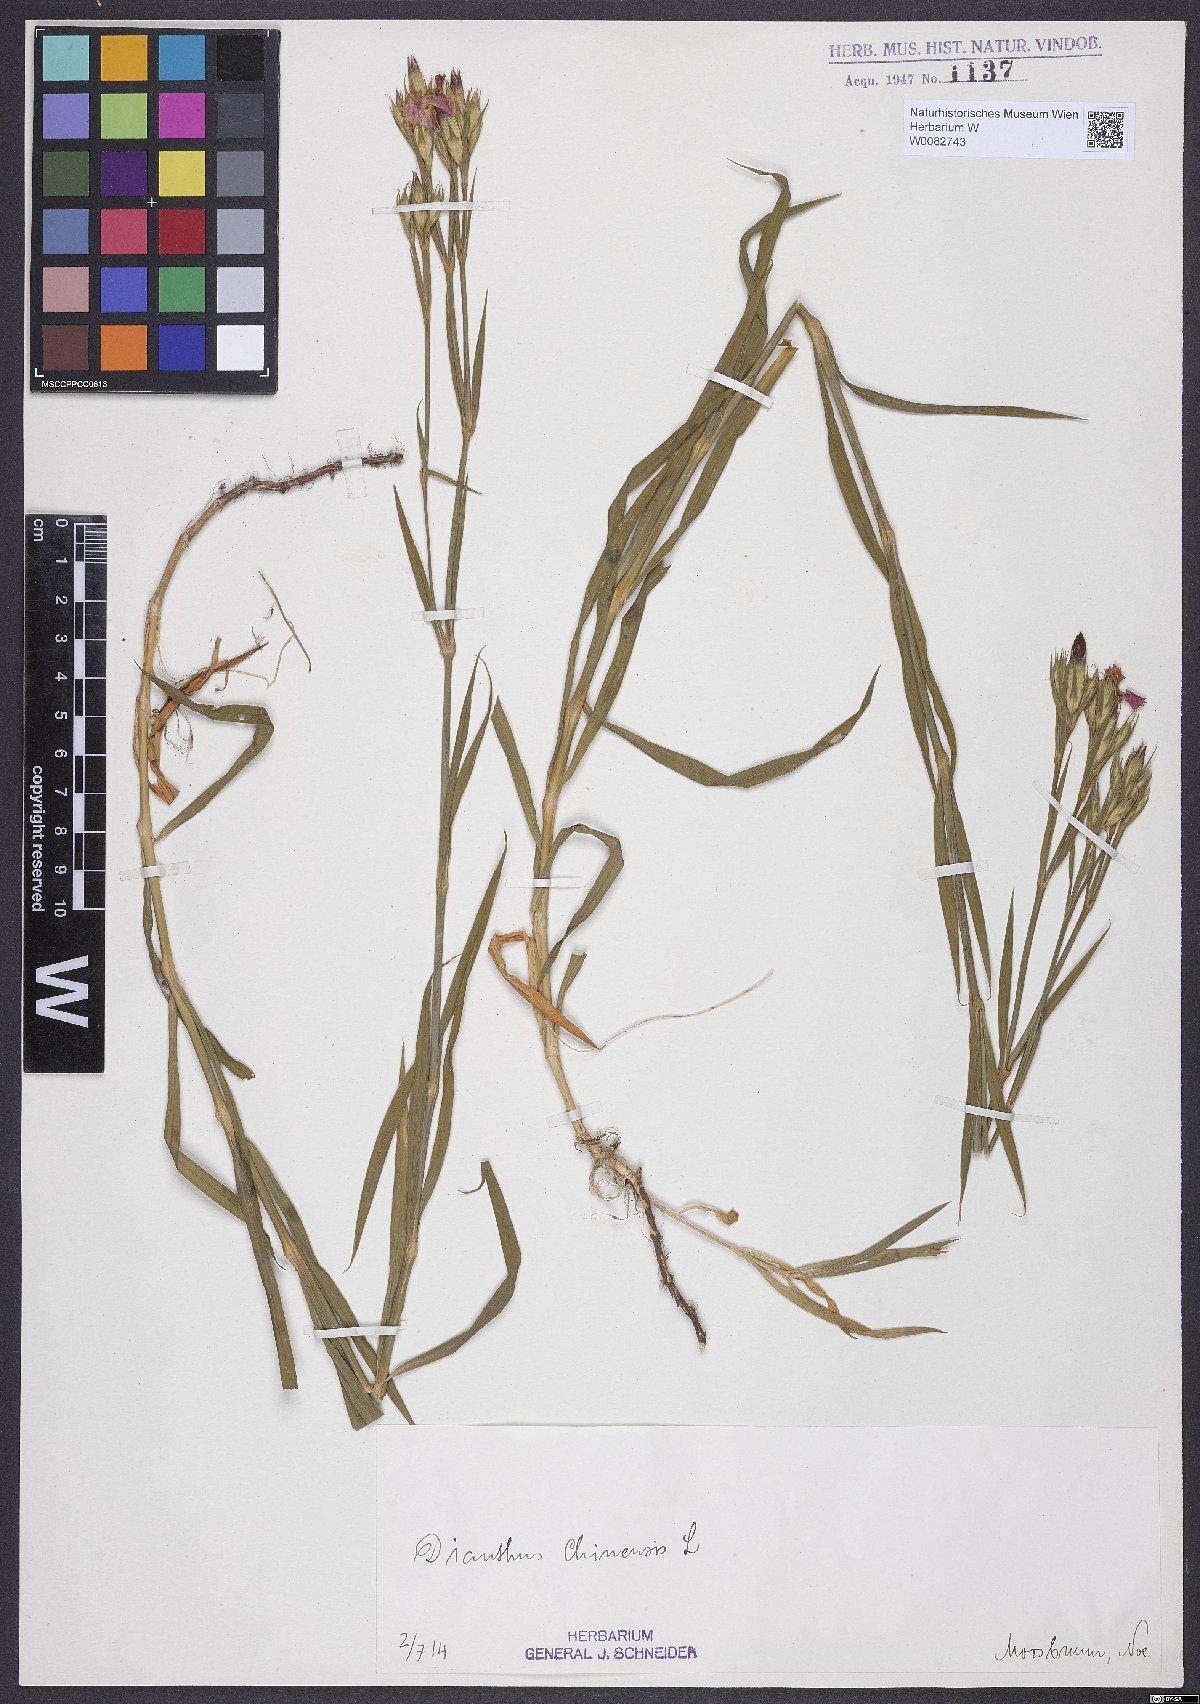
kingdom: Plantae
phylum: Tracheophyta
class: Magnoliopsida
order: Caryophyllales
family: Caryophyllaceae
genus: Dianthus
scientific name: Dianthus chinensis
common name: Rainbow pink
